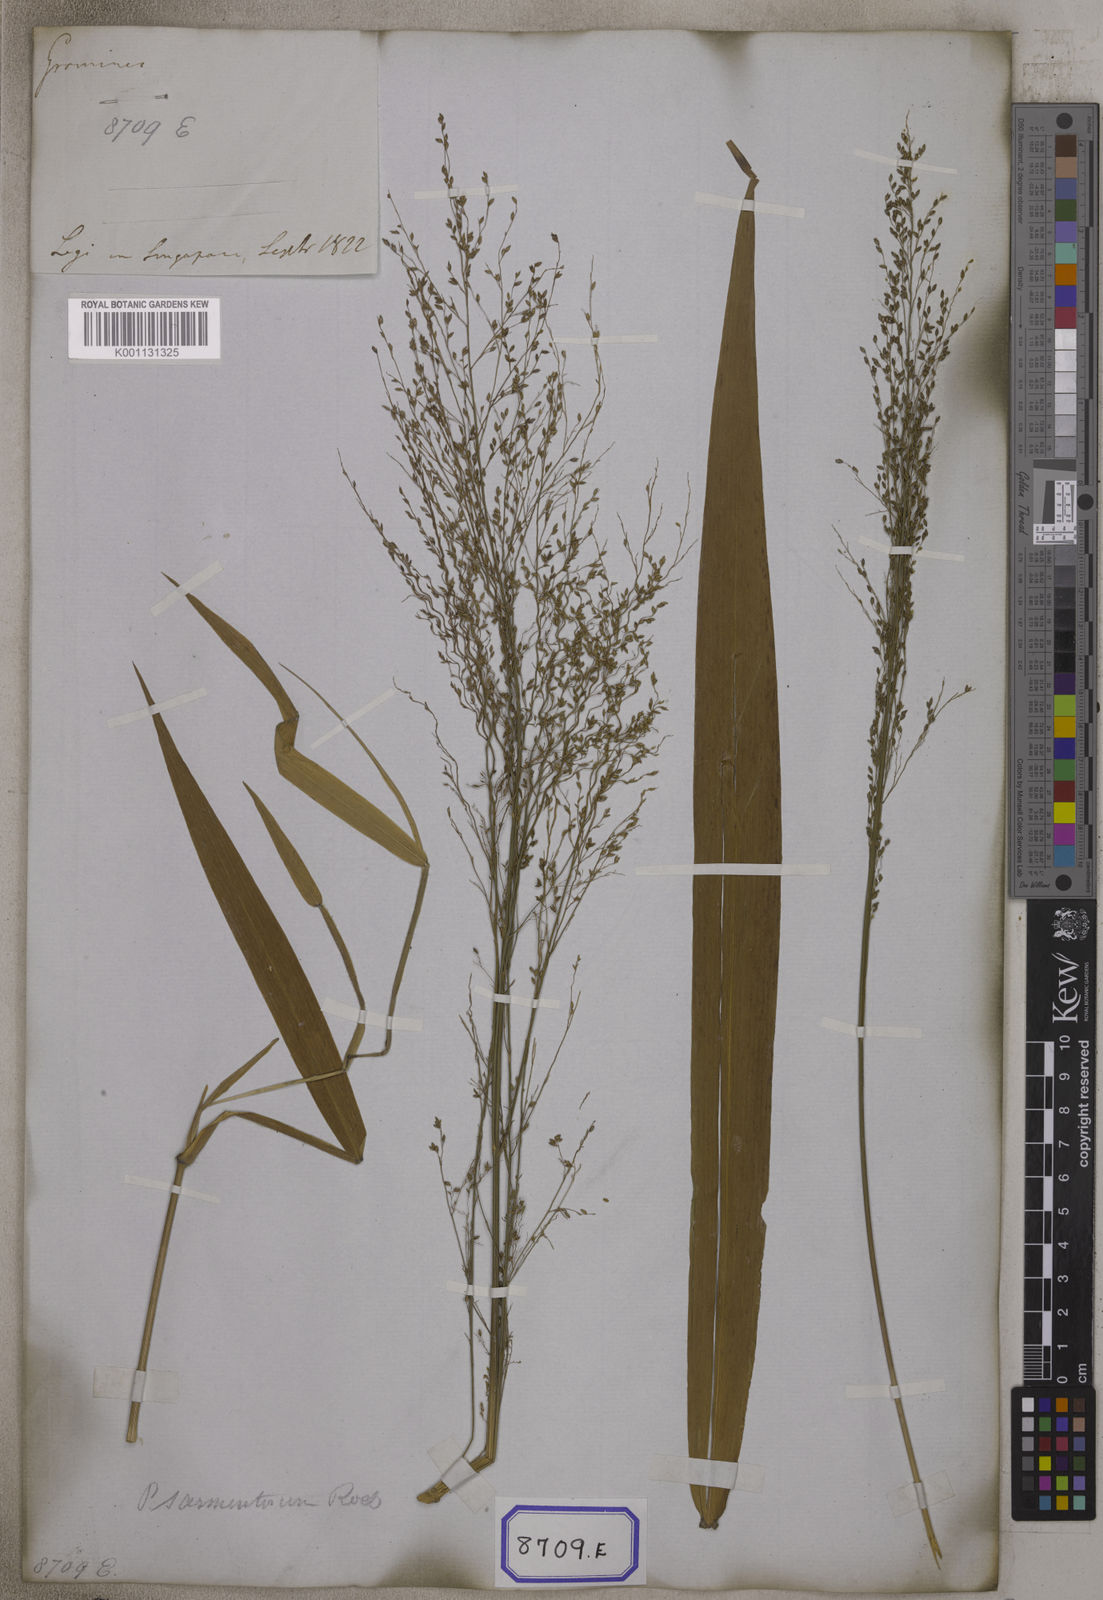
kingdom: Plantae
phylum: Tracheophyta
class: Liliopsida
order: Poales
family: Poaceae
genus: Panicum
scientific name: Panicum
